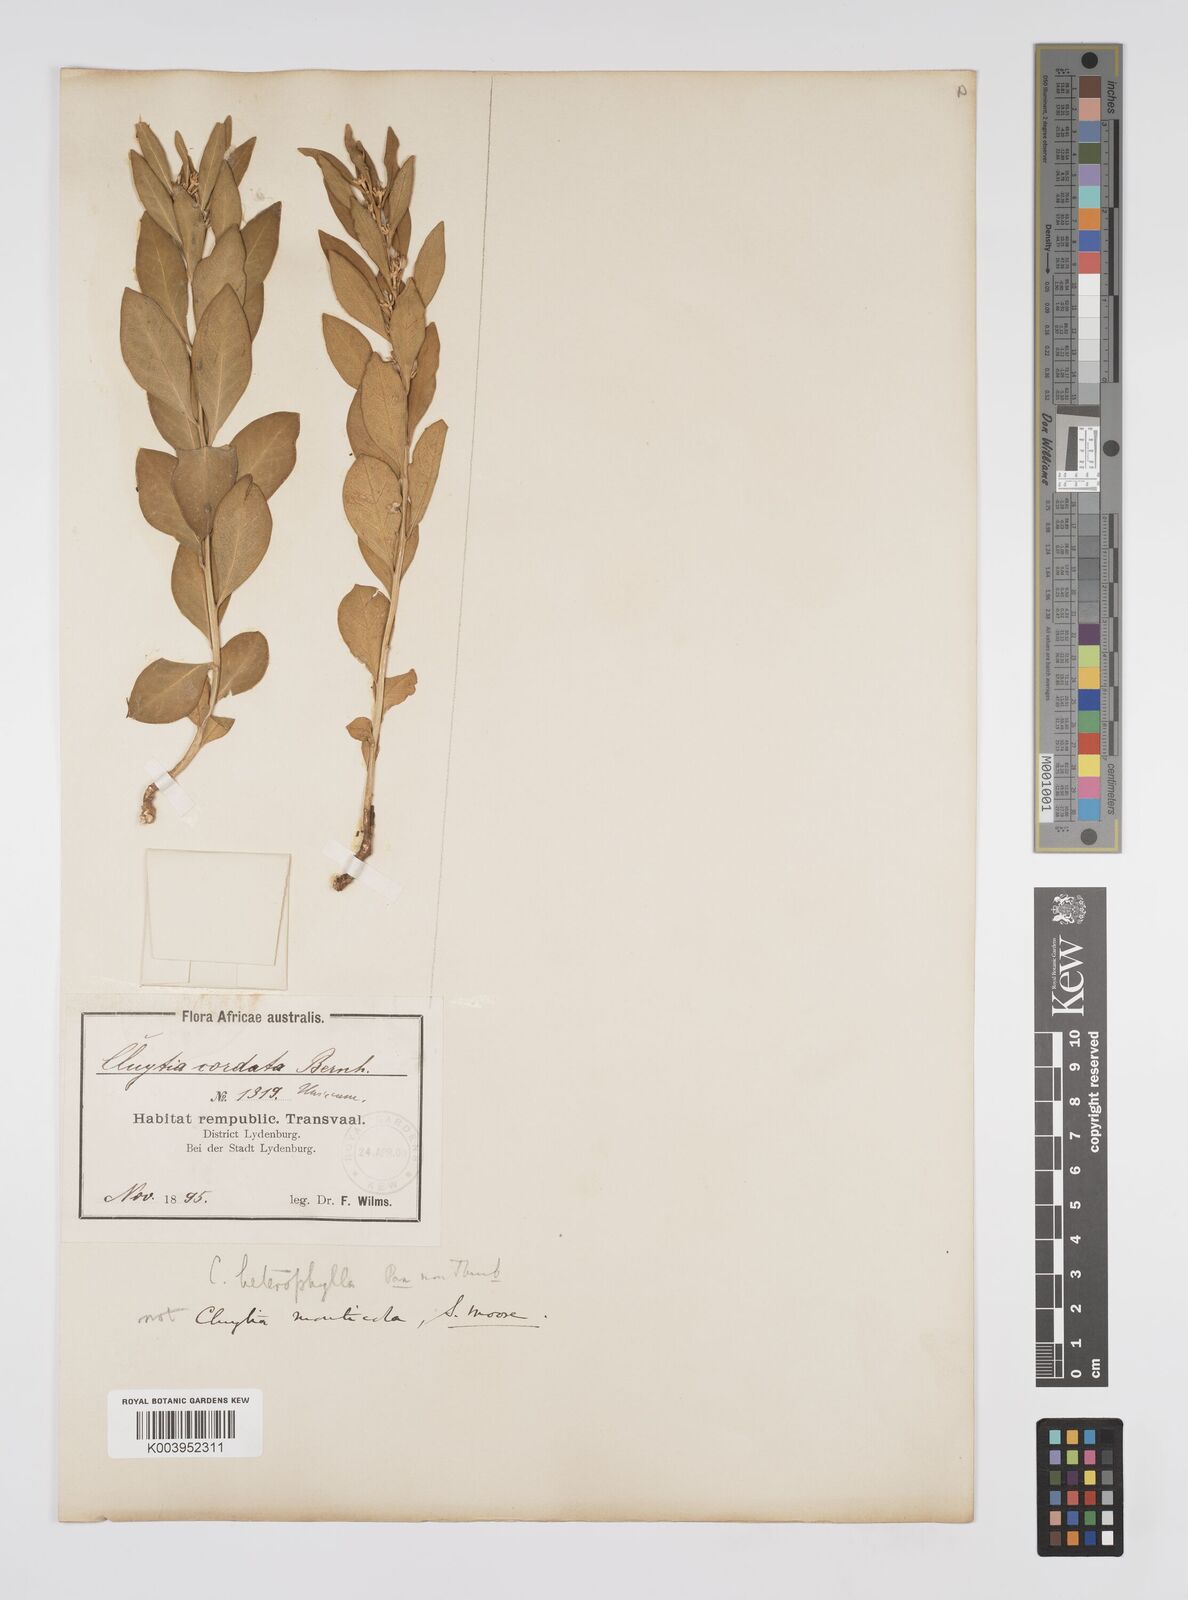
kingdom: Plantae
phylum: Tracheophyta
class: Magnoliopsida
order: Malpighiales
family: Peraceae
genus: Clutia
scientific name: Clutia
